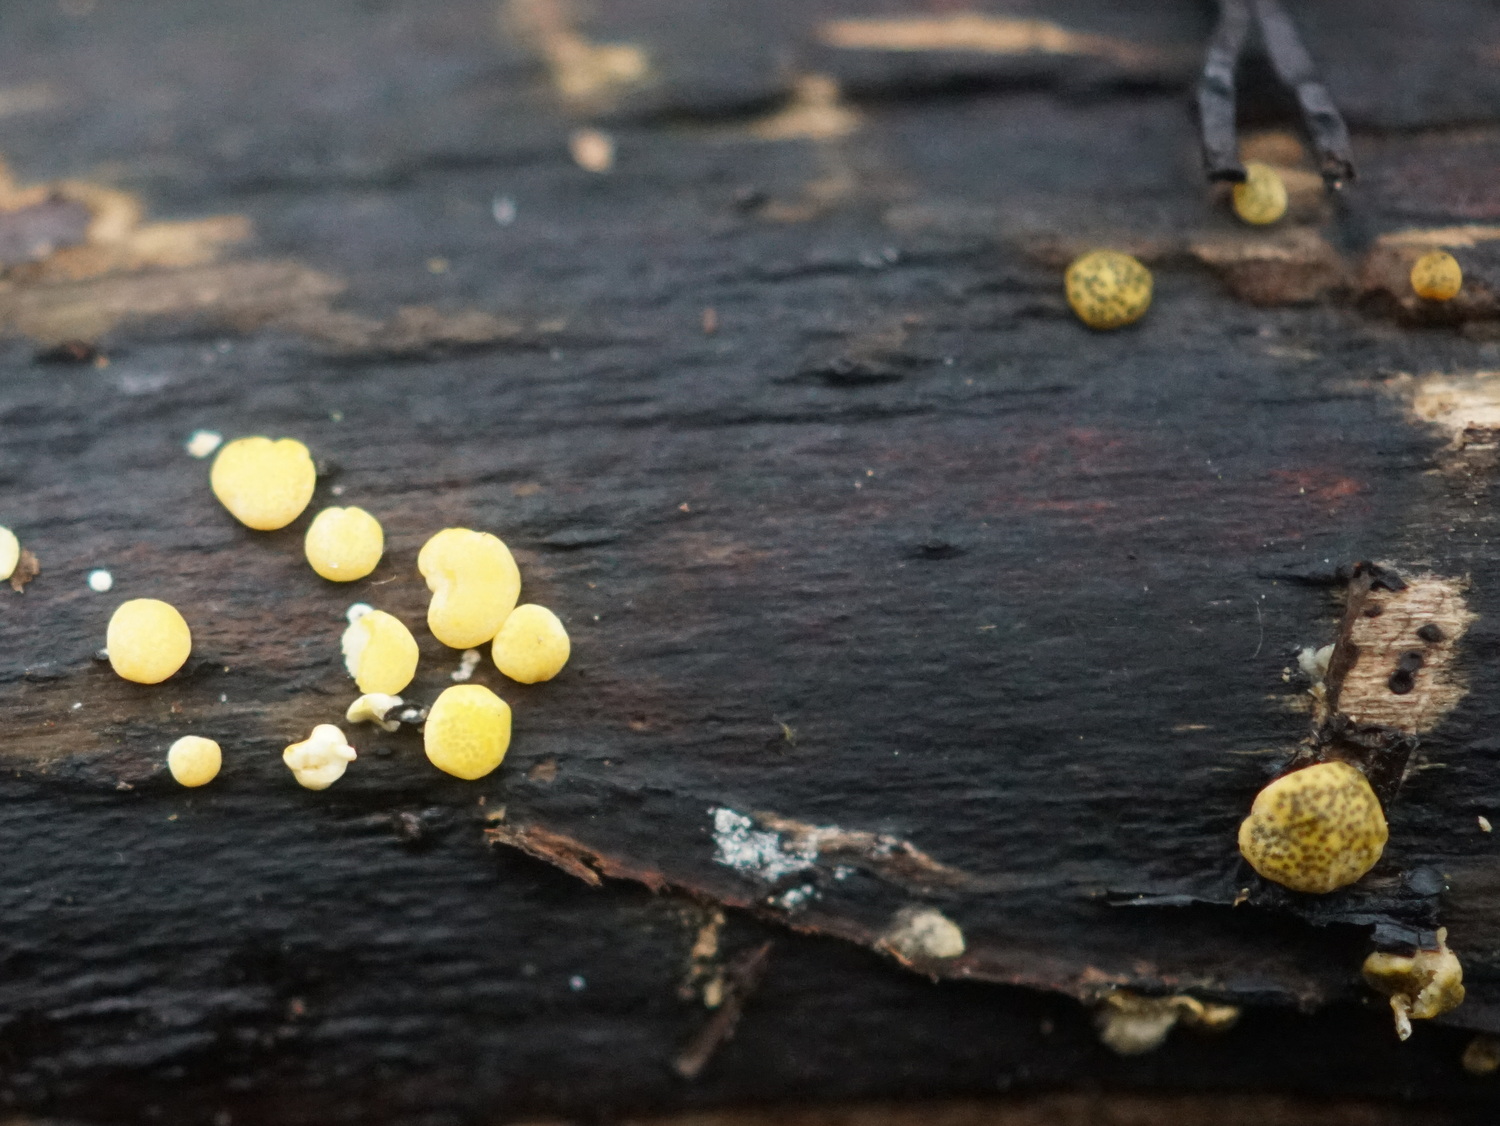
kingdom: Fungi
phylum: Ascomycota
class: Sordariomycetes
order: Hypocreales
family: Hypocreaceae
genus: Trichoderma
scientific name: Trichoderma aureoviride
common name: æggegul kødkerne
